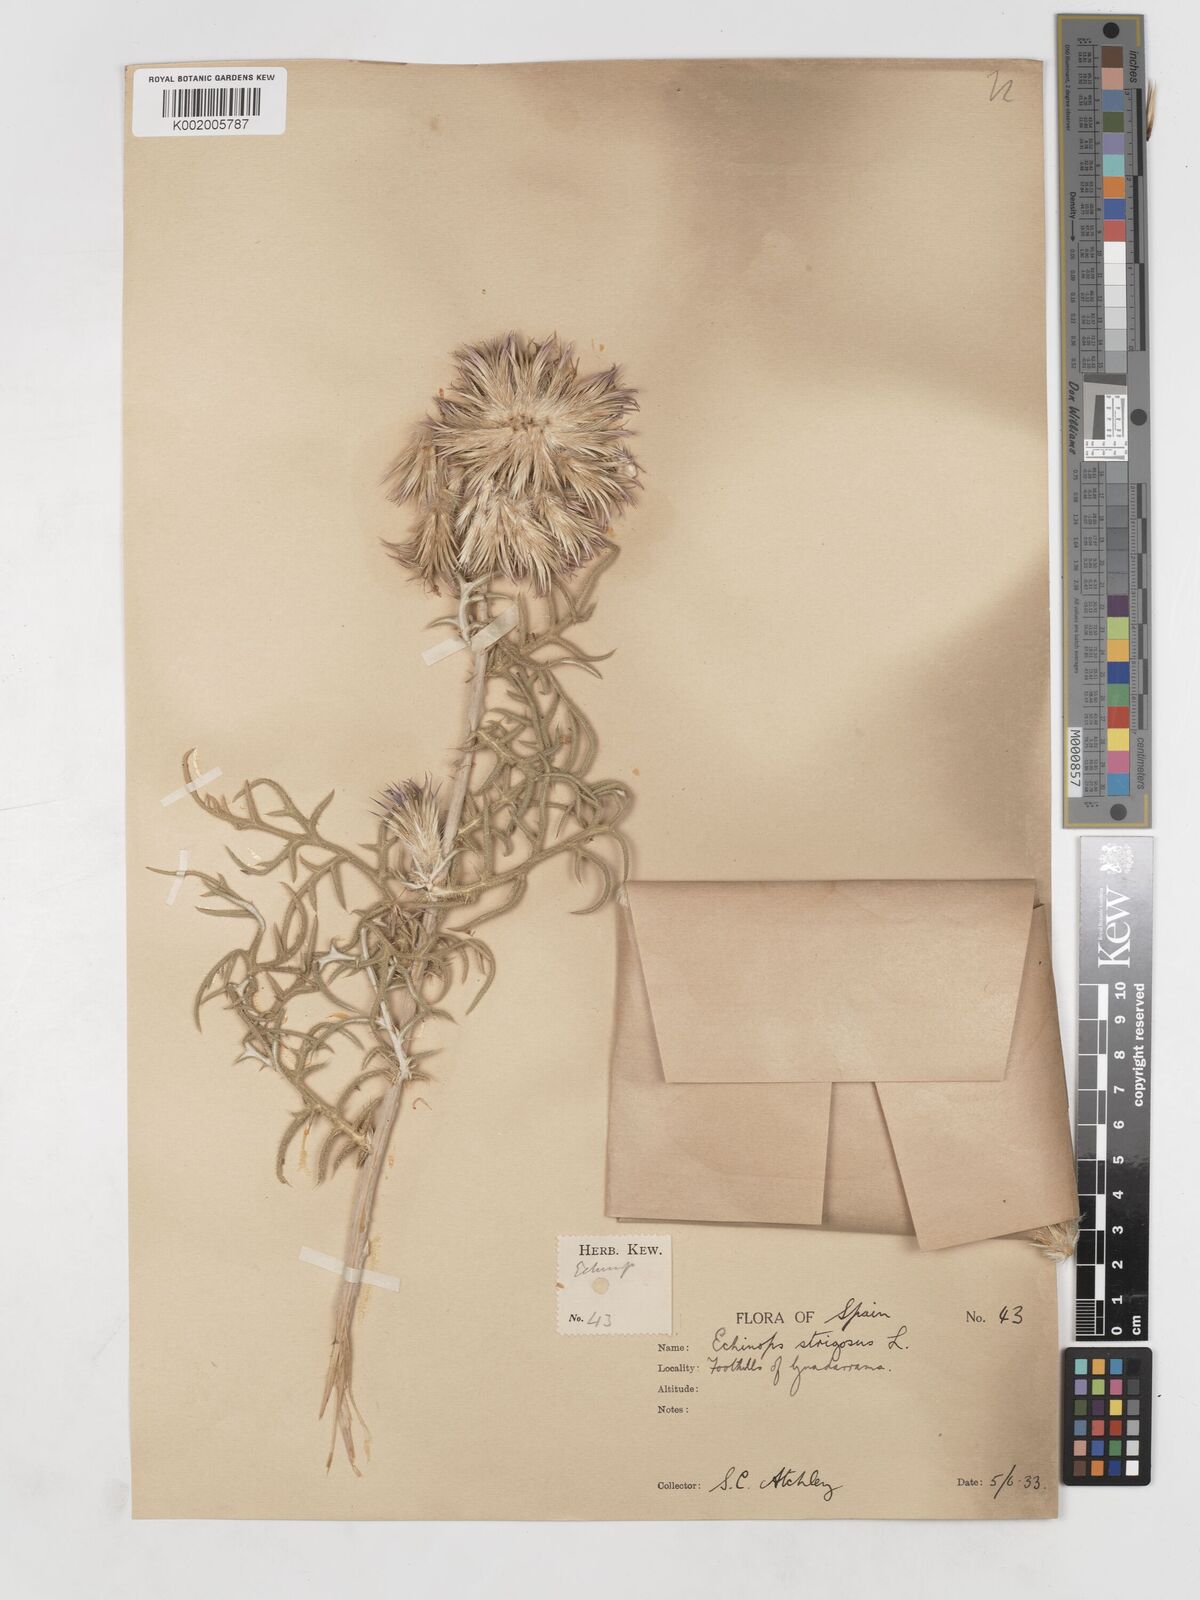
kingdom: Plantae
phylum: Tracheophyta
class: Magnoliopsida
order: Asterales
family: Asteraceae
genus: Echinops
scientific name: Echinops strigosus
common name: Rough-leaf globe thistle
